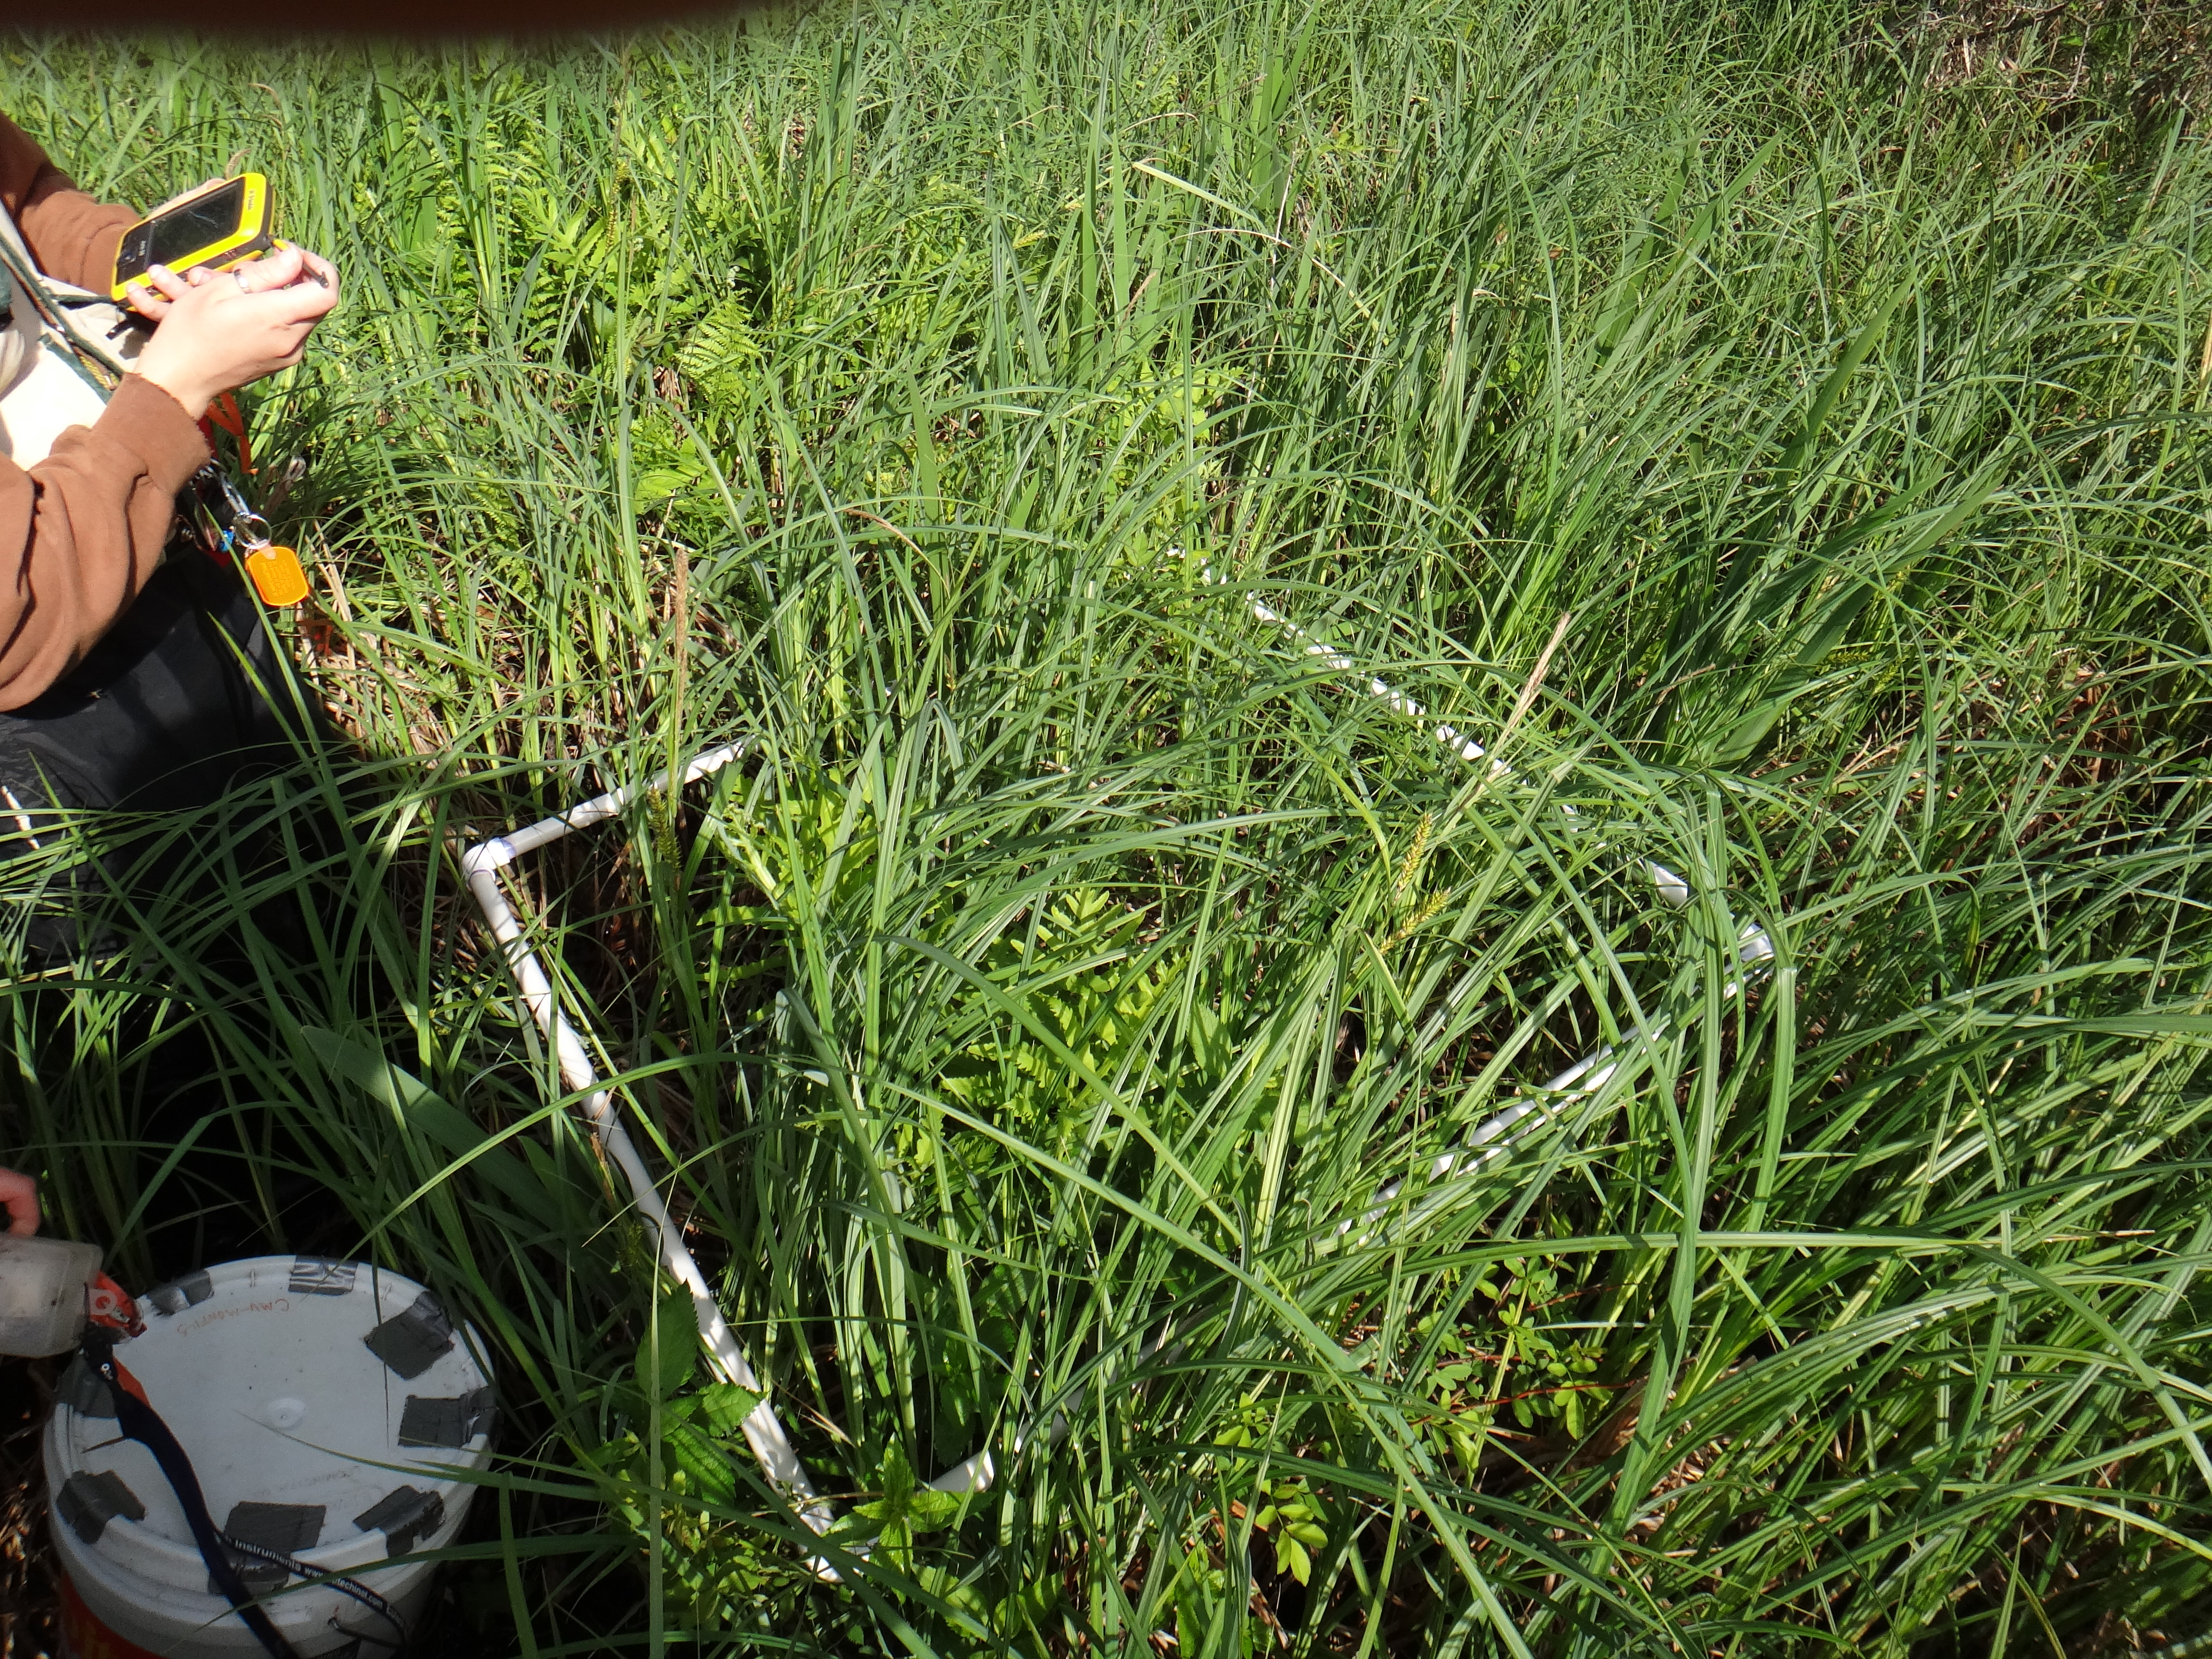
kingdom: Plantae
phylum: Tracheophyta
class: Liliopsida
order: Alismatales
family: Araceae
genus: Symplocarpus
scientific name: Symplocarpus foetidus
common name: Eastern skunk cabbage
